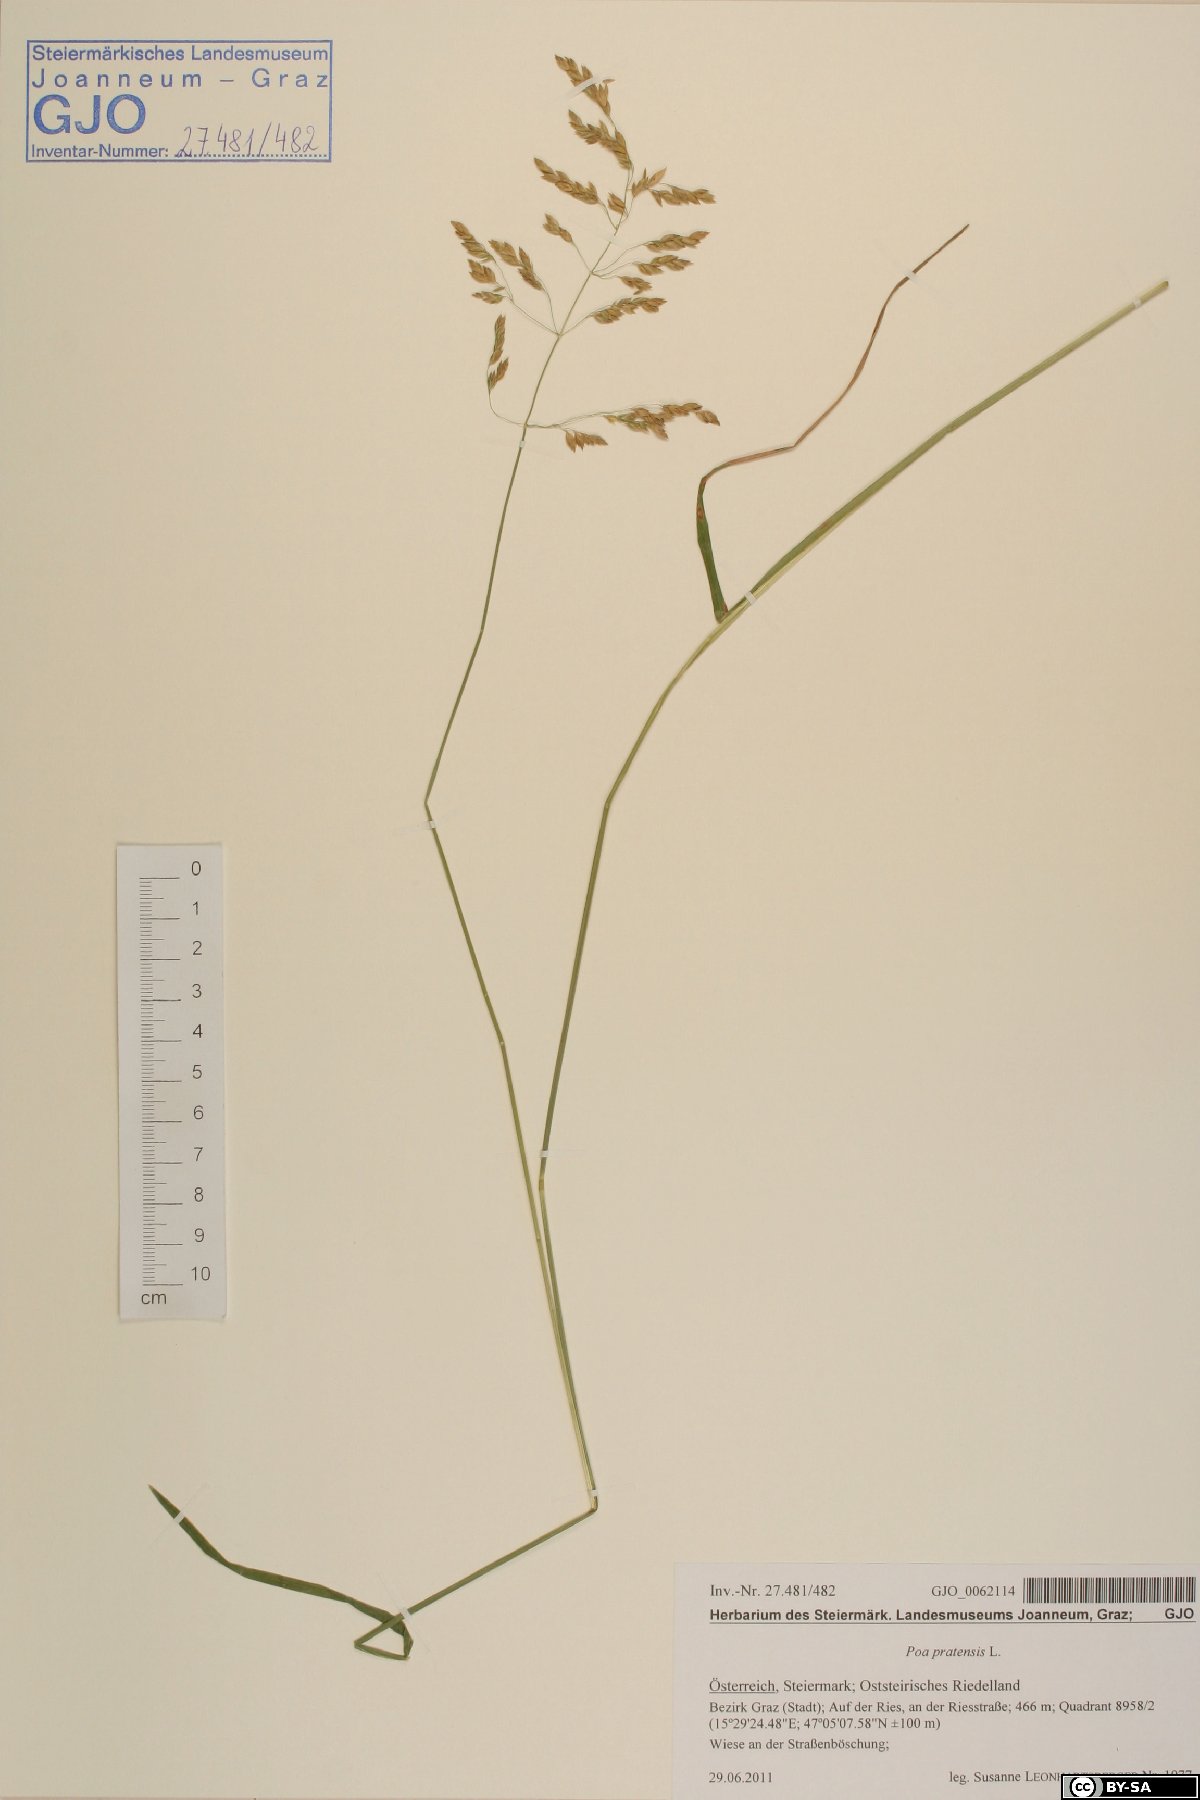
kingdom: Plantae
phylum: Tracheophyta
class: Liliopsida
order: Poales
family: Poaceae
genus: Poa
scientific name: Poa pratensis
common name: Kentucky bluegrass
